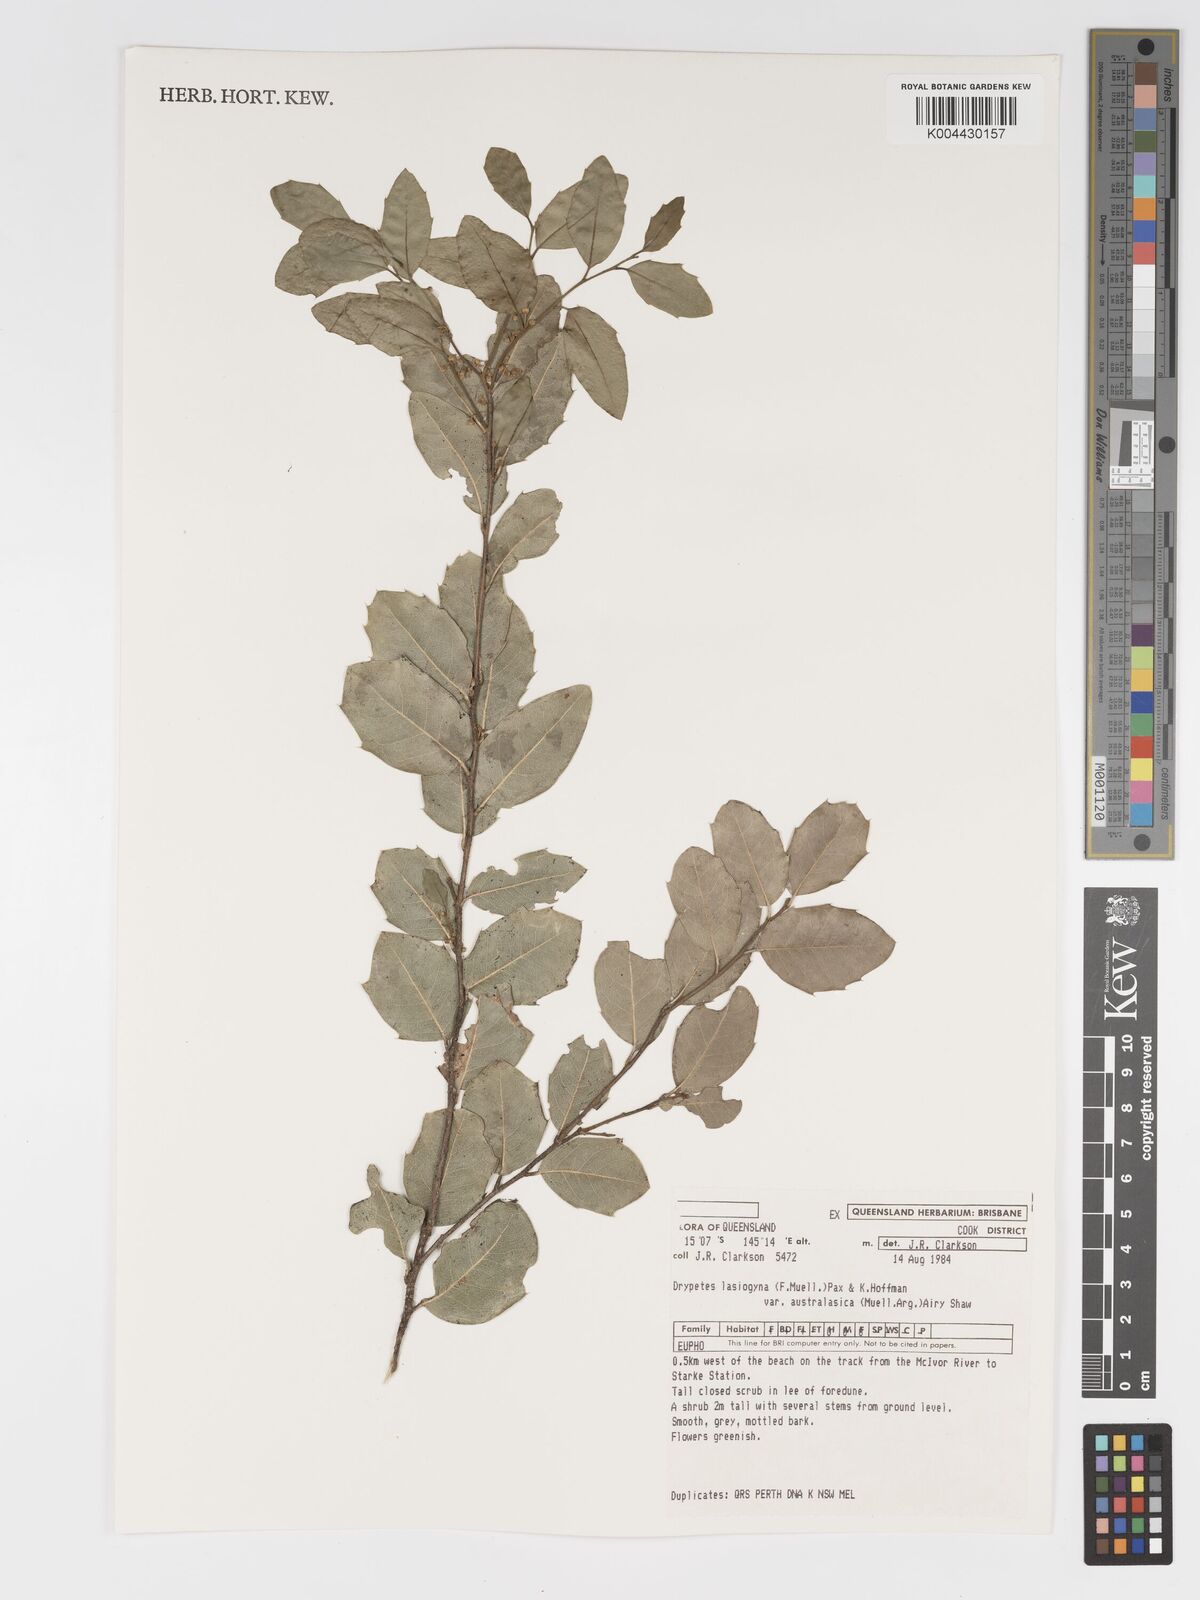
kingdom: Plantae
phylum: Tracheophyta
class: Magnoliopsida
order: Malpighiales
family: Putranjivaceae
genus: Drypetes
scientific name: Drypetes deplanchei
